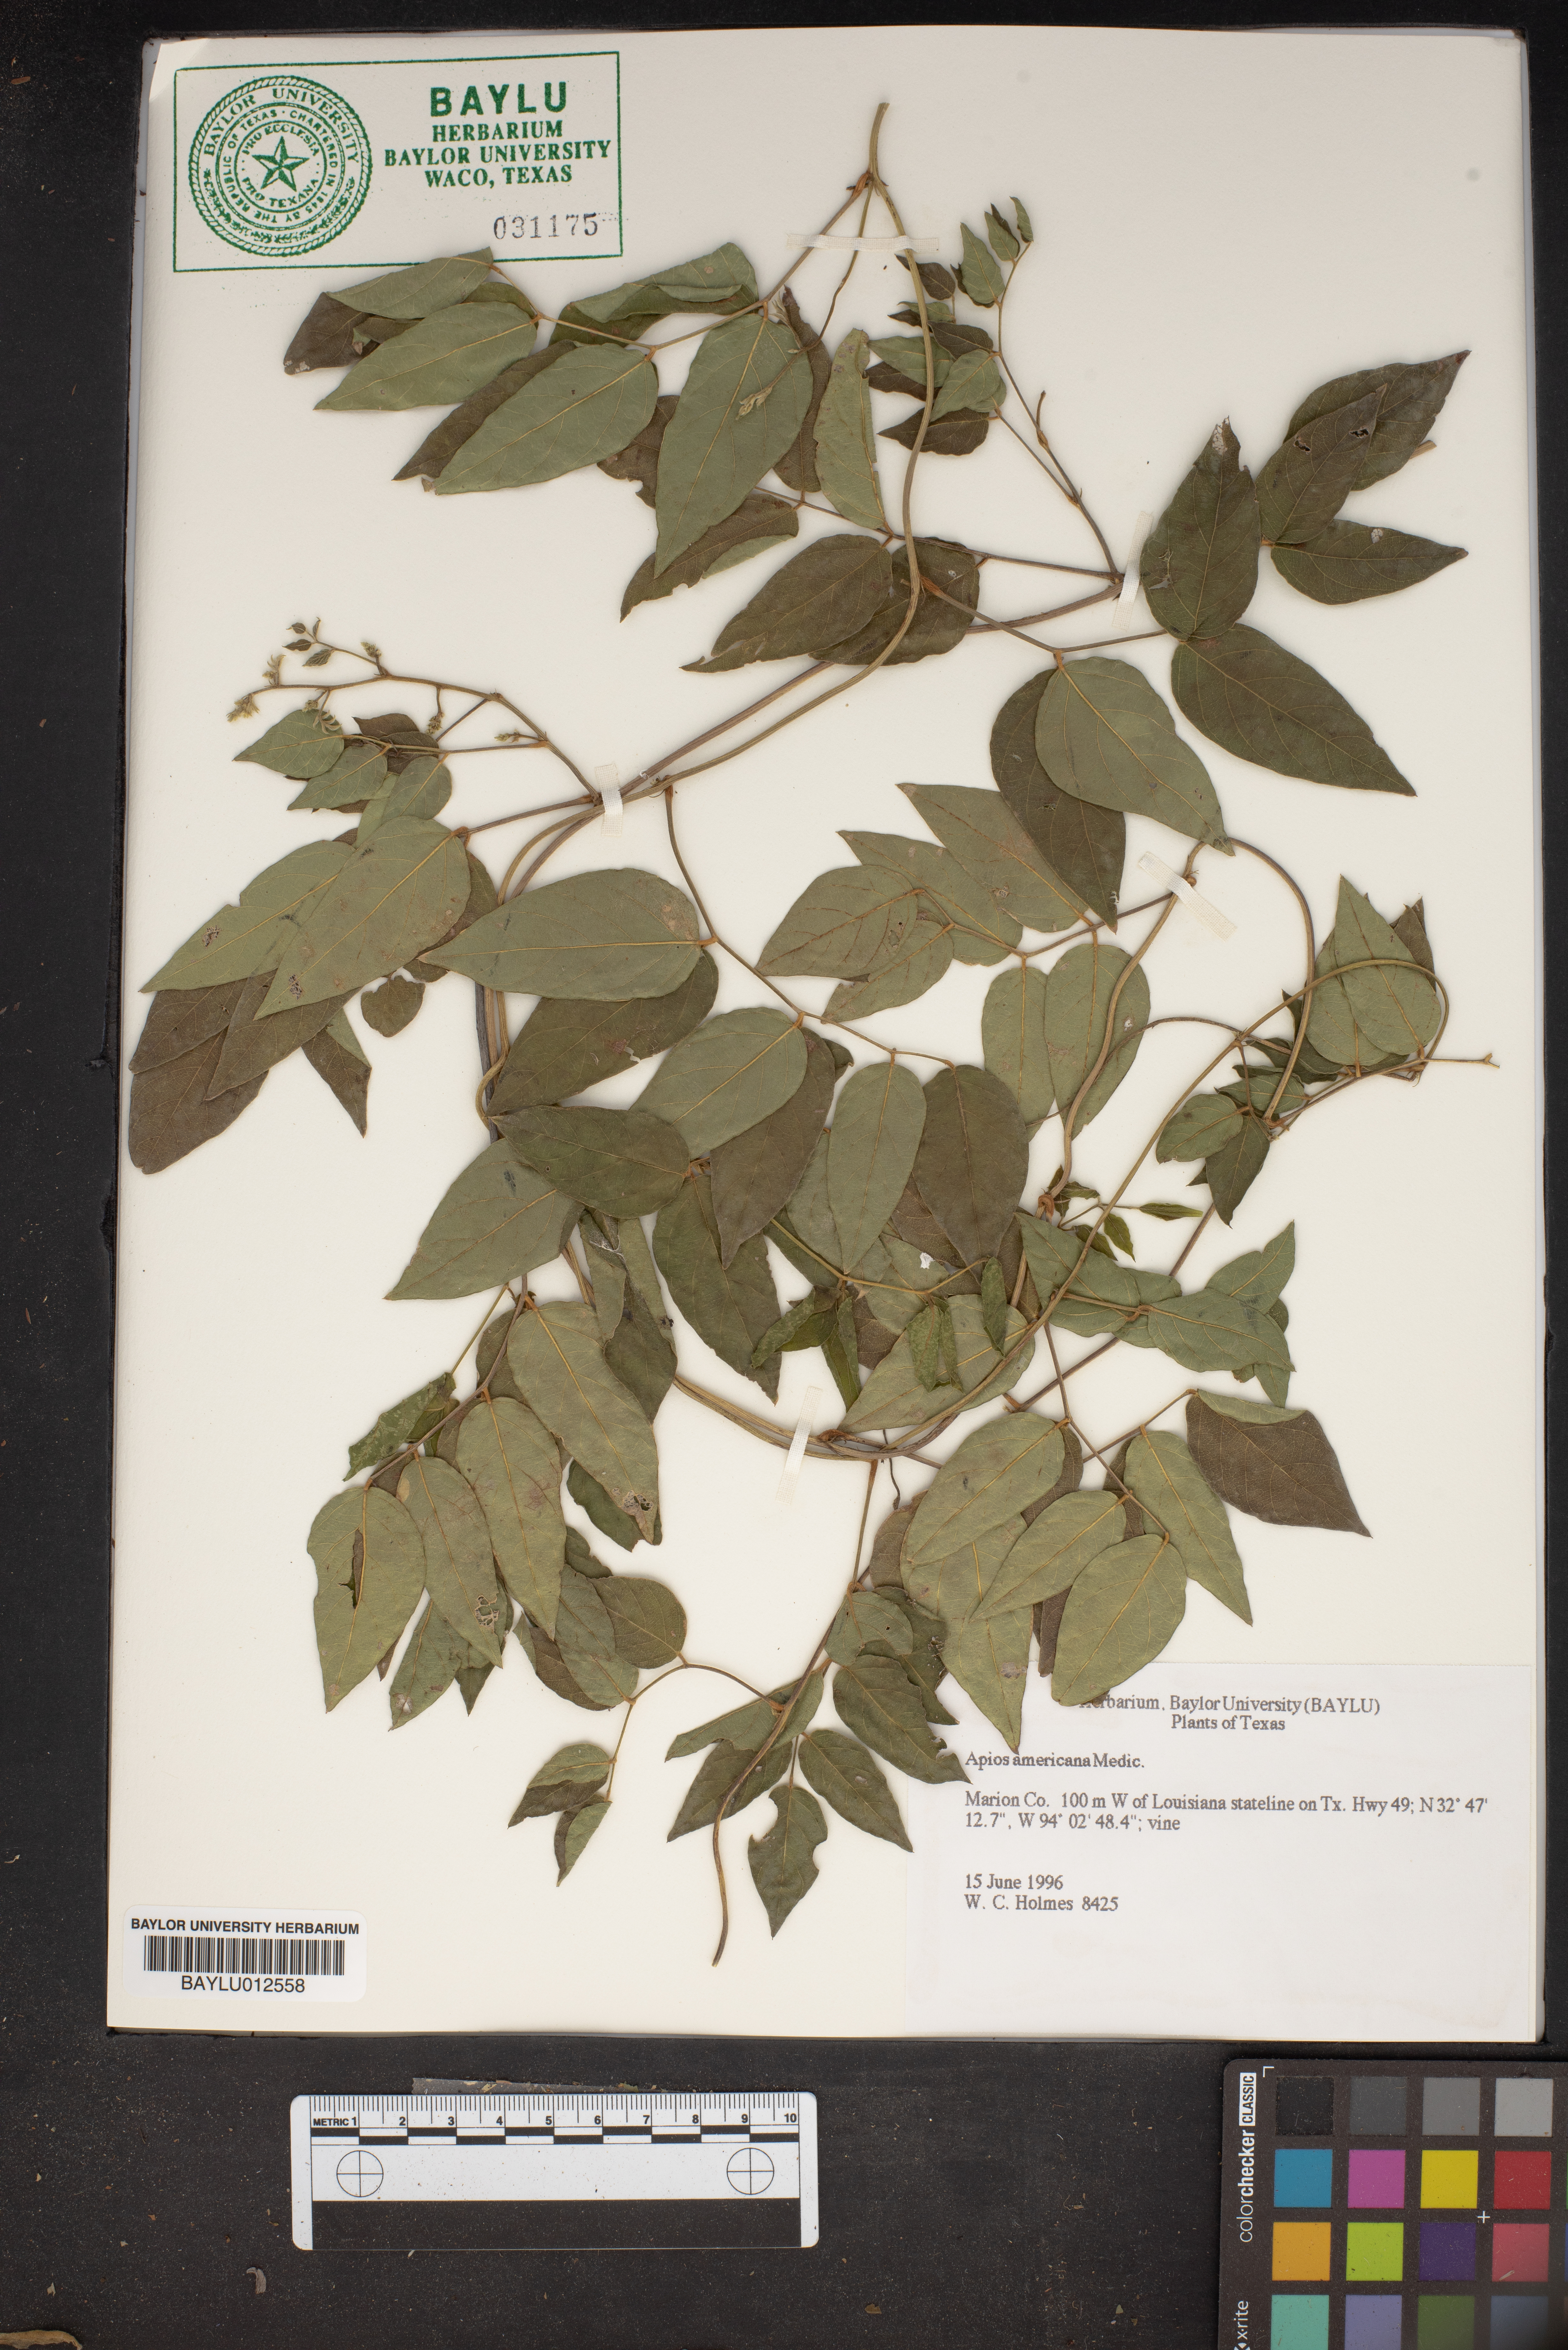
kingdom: Plantae
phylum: Tracheophyta
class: Magnoliopsida
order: Fabales
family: Fabaceae
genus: Apios
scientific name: Apios americana
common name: American potato-bean
